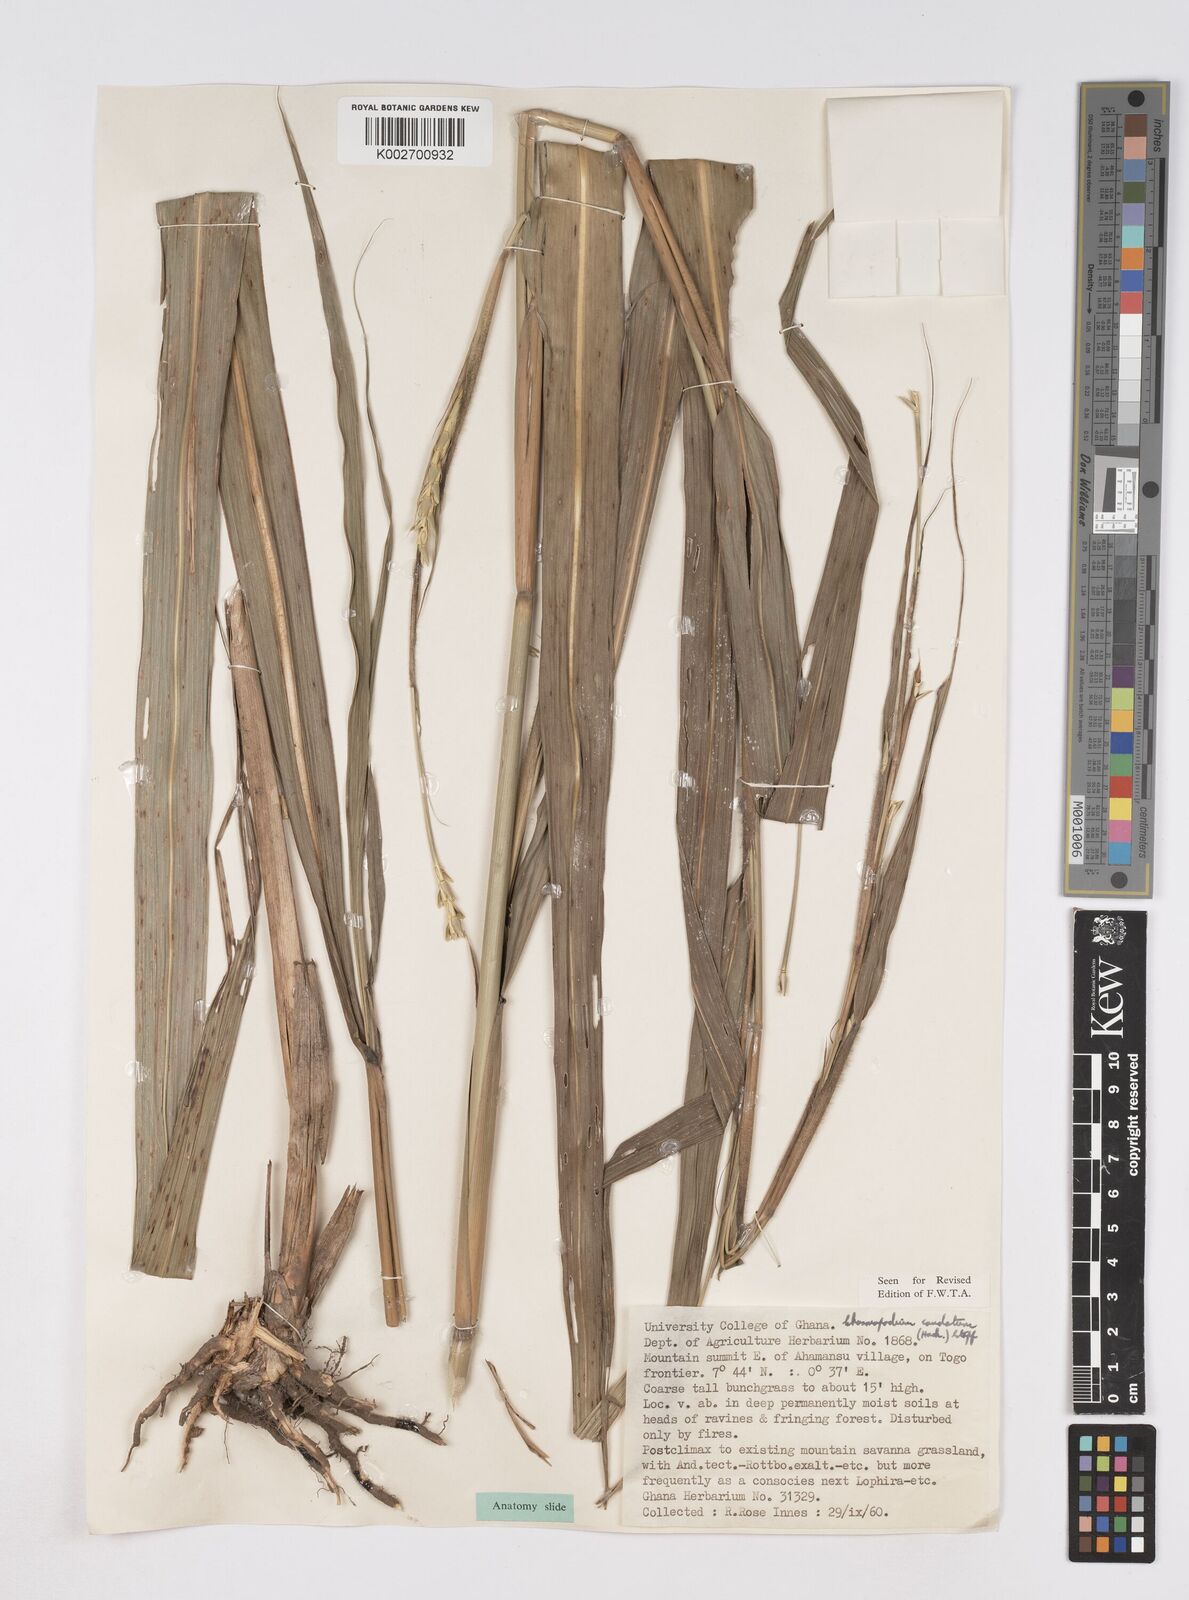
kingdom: Plantae
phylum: Tracheophyta
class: Liliopsida
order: Poales
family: Poaceae
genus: Chasmopodium
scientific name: Chasmopodium afzelii
